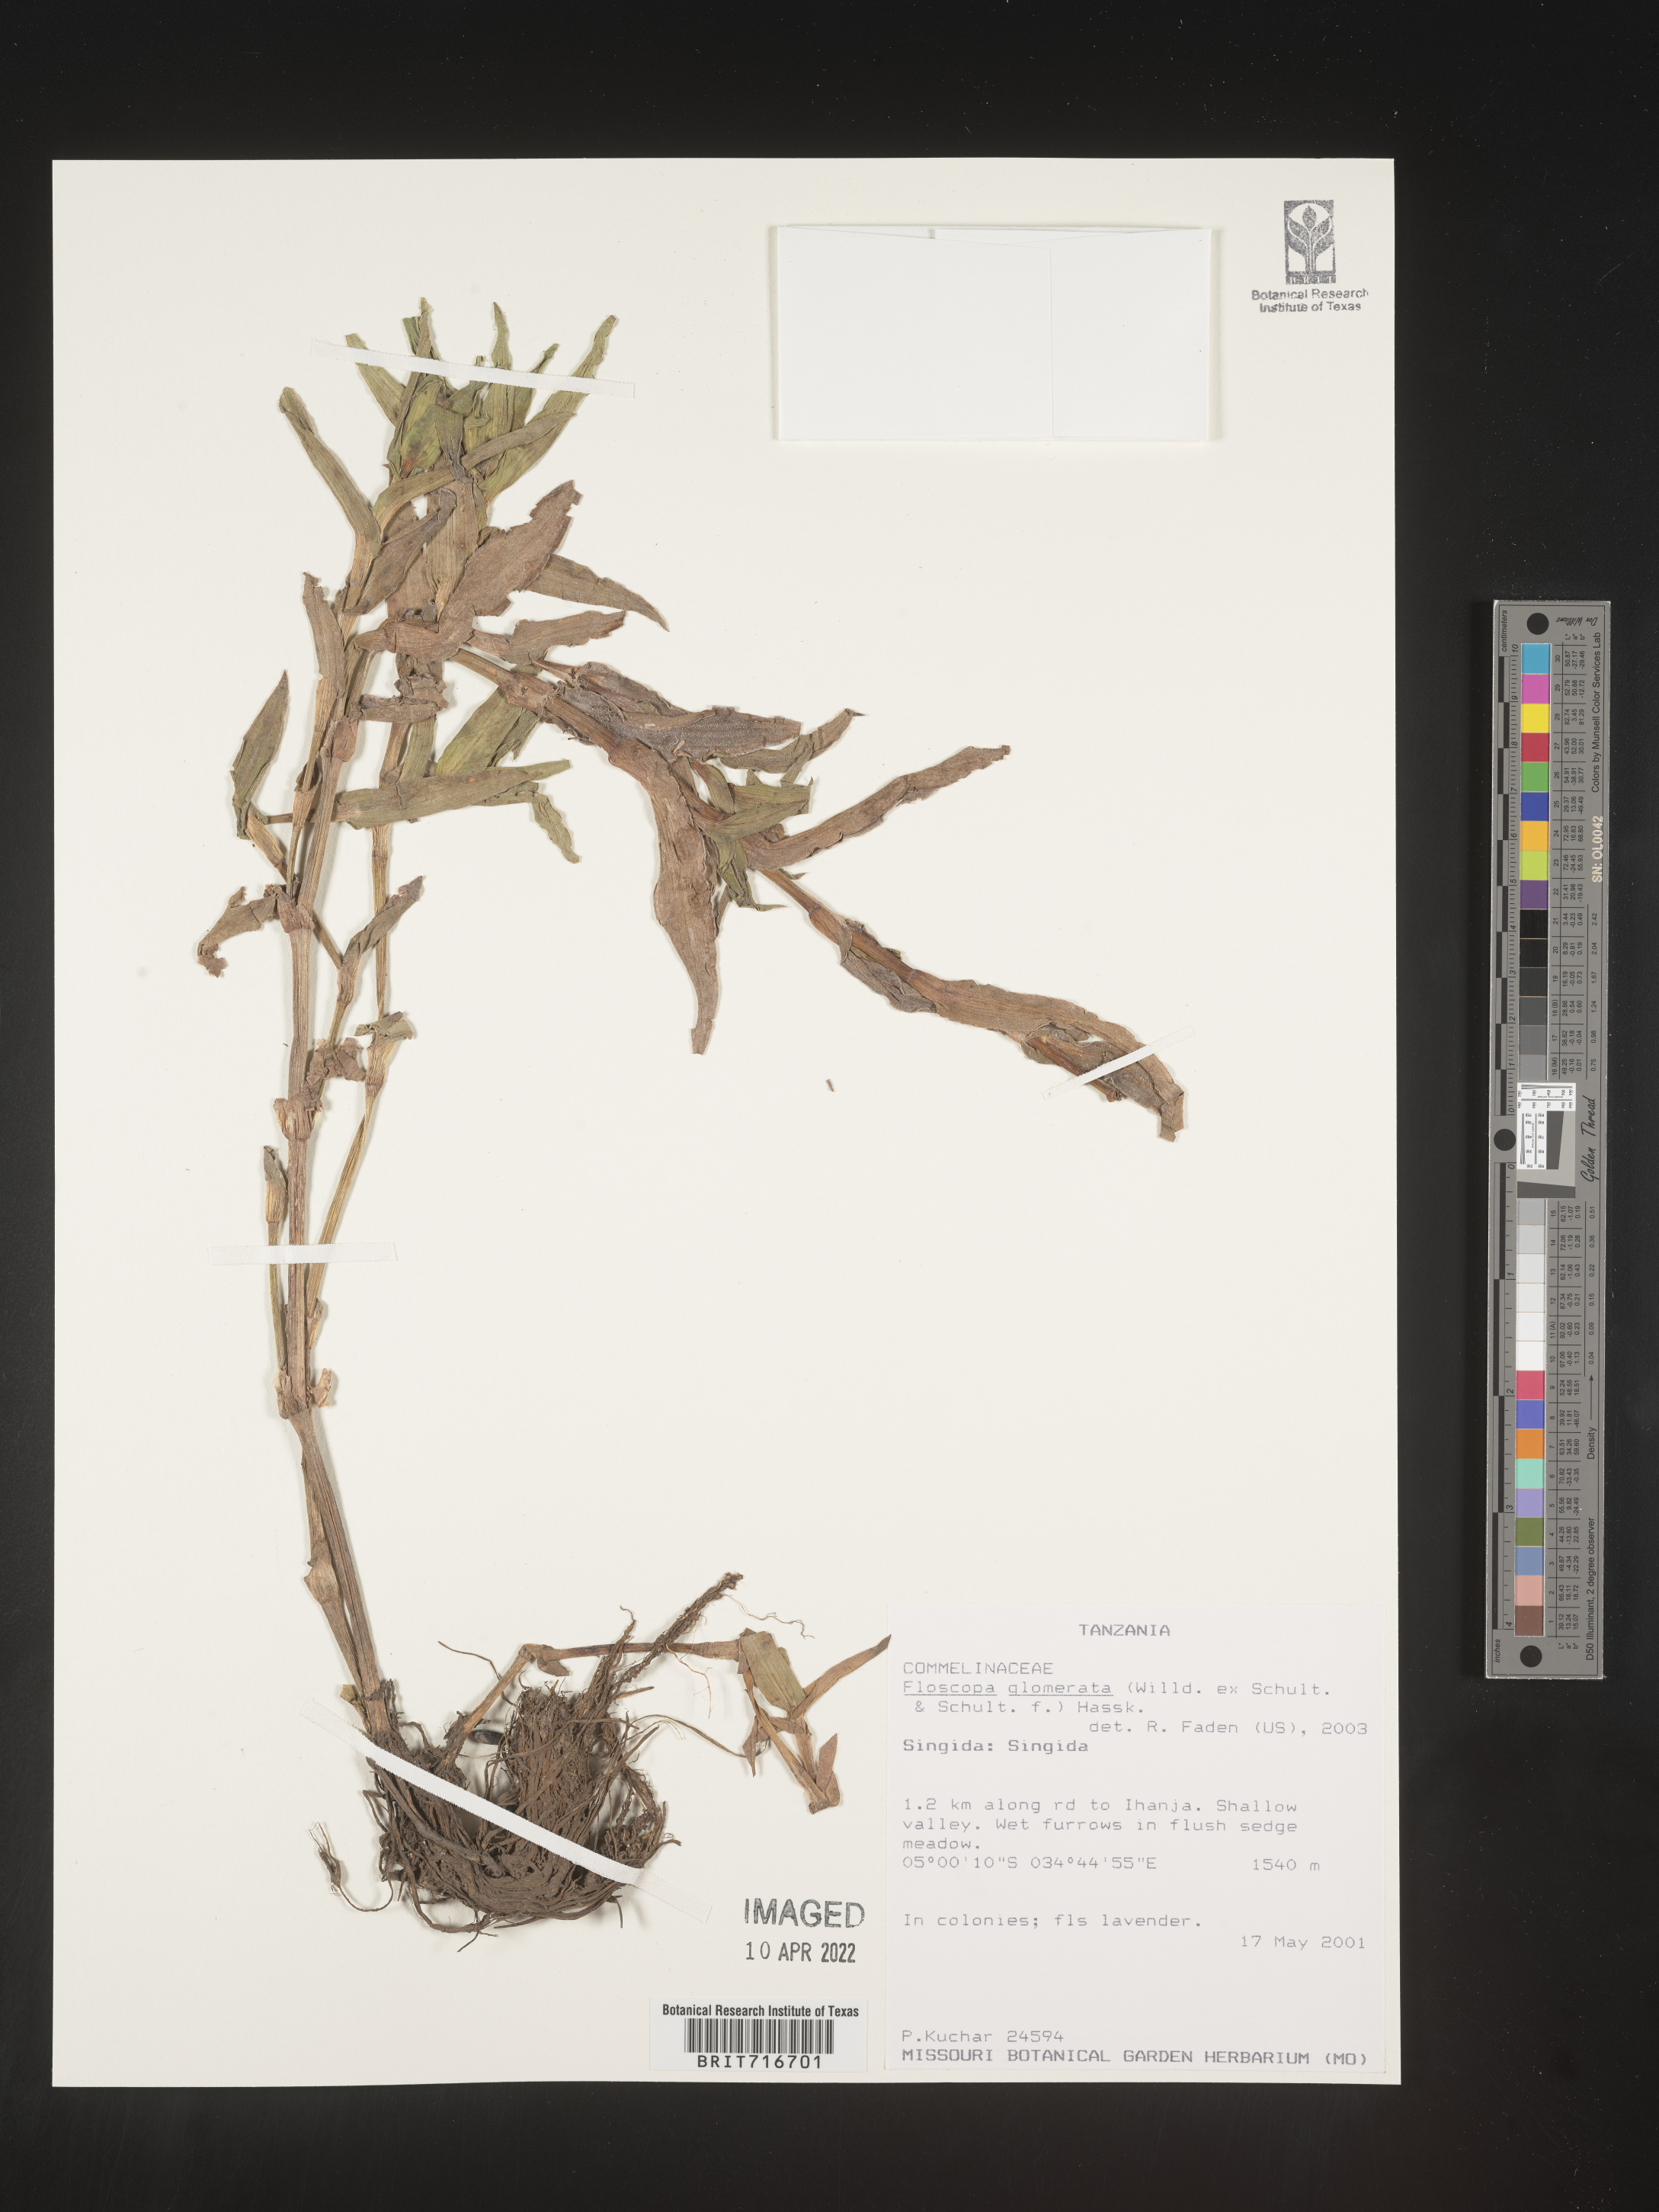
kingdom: Plantae
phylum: Tracheophyta
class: Liliopsida
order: Commelinales
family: Commelinaceae
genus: Floscopa
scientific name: Floscopa
